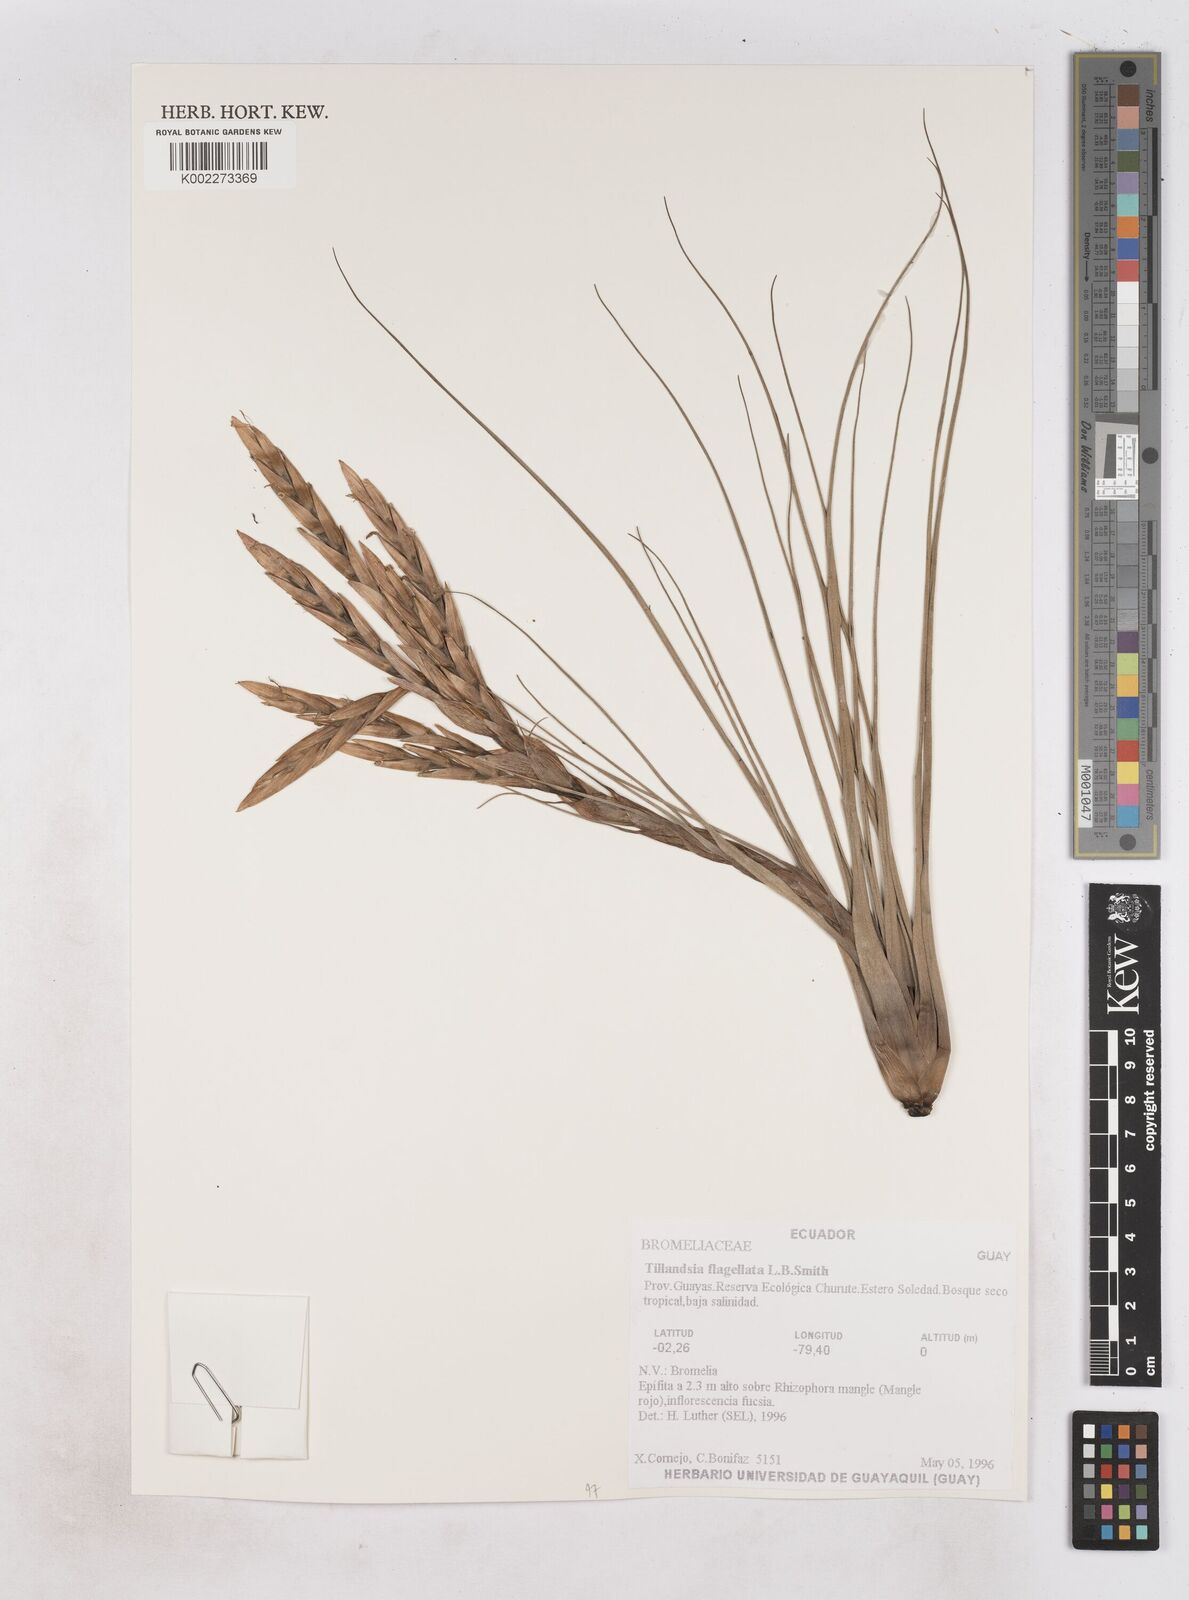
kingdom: Plantae
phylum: Tracheophyta
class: Liliopsida
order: Poales
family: Bromeliaceae
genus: Tillandsia
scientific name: Tillandsia flagellata
